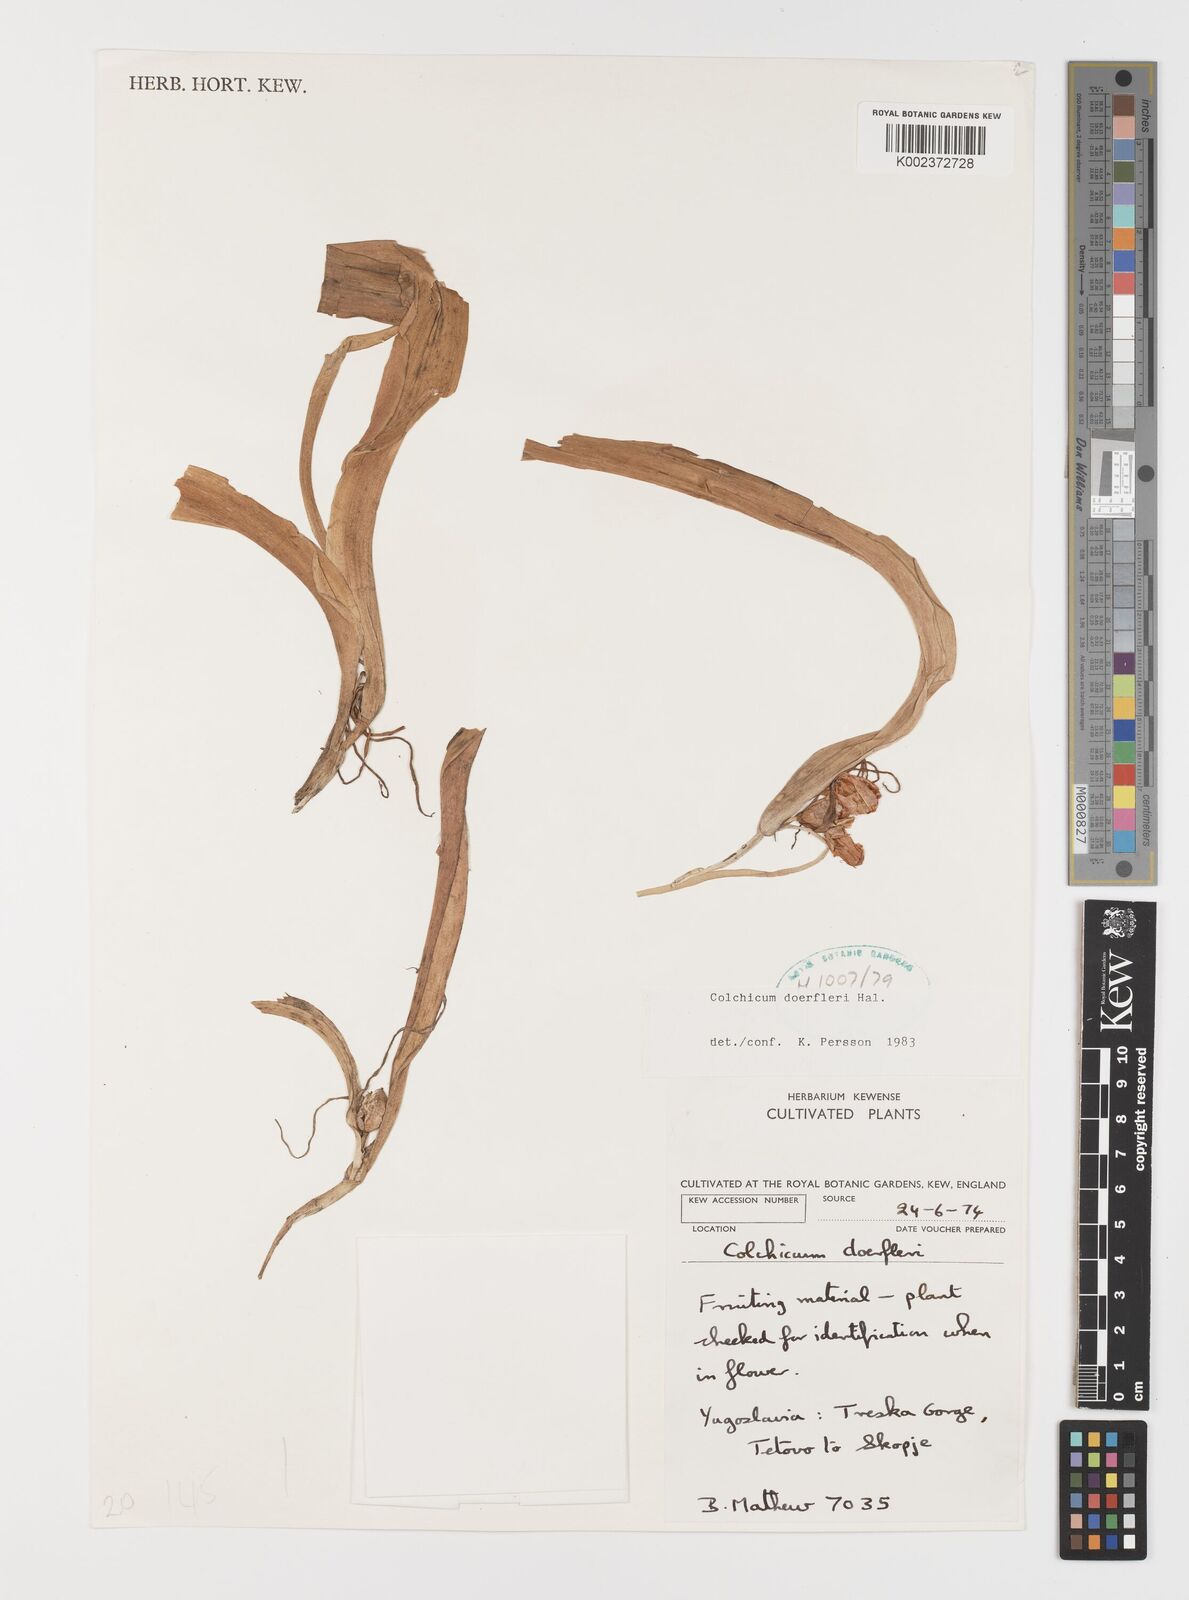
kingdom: Plantae
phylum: Tracheophyta
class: Liliopsida
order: Liliales
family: Colchicaceae
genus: Colchicum
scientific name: Colchicum doerfleri
